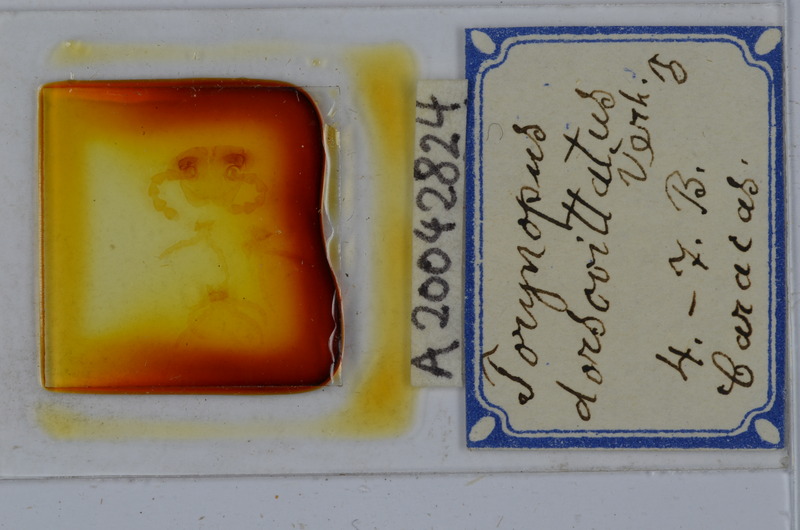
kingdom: Animalia
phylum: Arthropoda
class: Diplopoda
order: Spirostreptida
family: Spirostreptidae
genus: Orthoporus
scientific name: Orthoporus dorsovittatus
